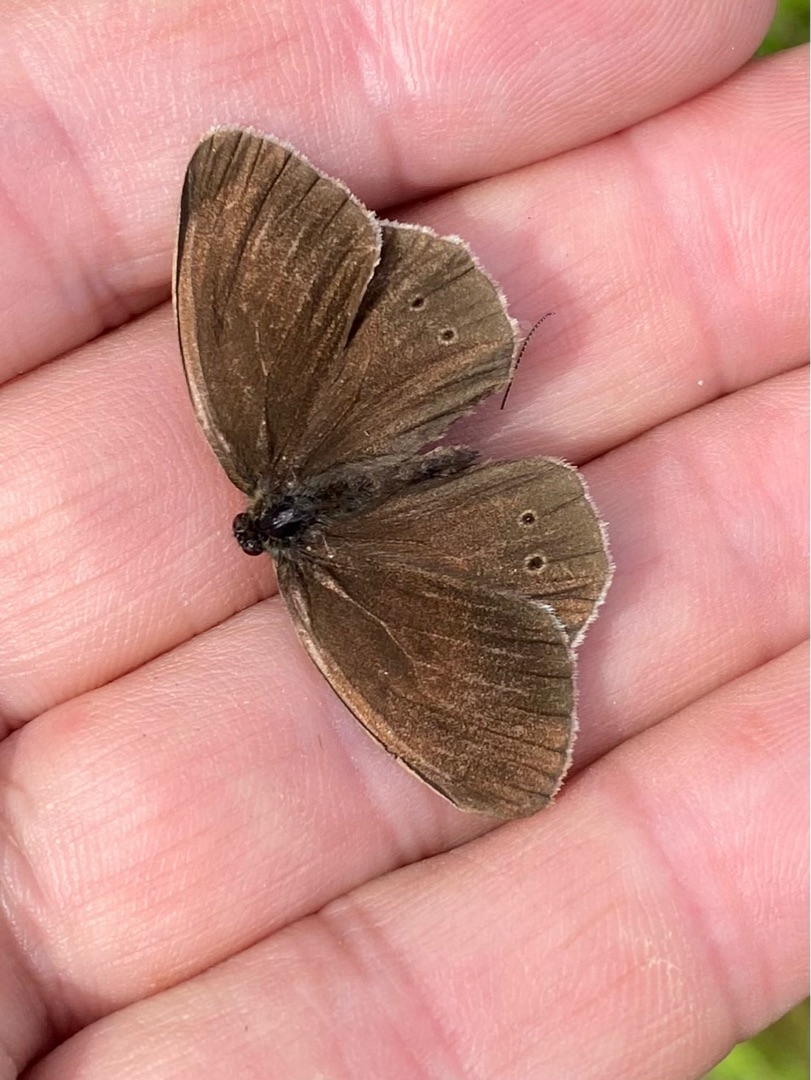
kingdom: Animalia
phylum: Arthropoda
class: Insecta
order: Lepidoptera
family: Nymphalidae
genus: Aphantopus
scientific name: Aphantopus hyperantus
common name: Engrandøje
